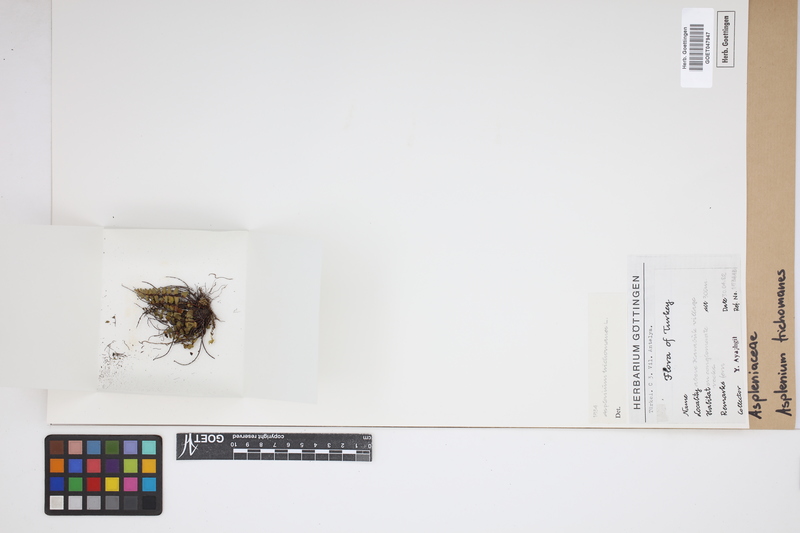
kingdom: Plantae
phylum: Tracheophyta
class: Polypodiopsida
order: Polypodiales
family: Aspleniaceae
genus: Asplenium
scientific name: Asplenium trichomanes
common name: Maidenhair spleenwort
